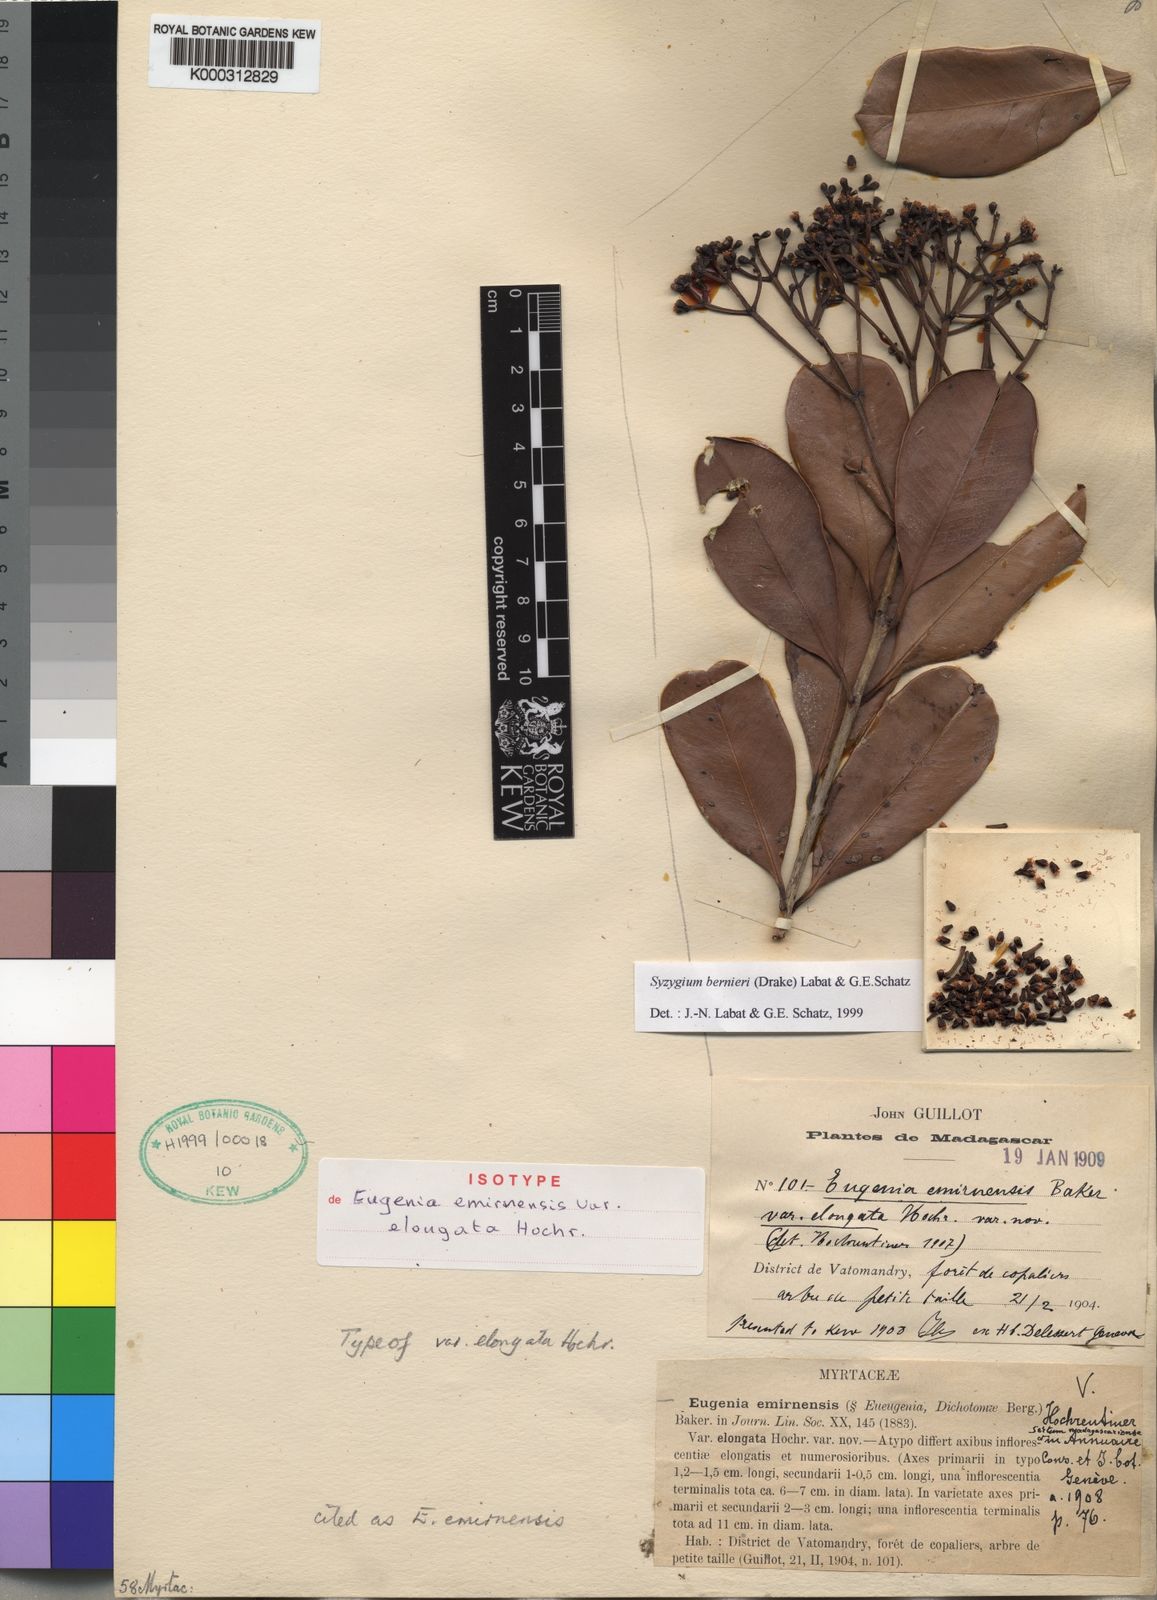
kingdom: Plantae
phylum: Tracheophyta
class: Magnoliopsida
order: Myrtales
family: Myrtaceae
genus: Syzygium
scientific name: Syzygium
